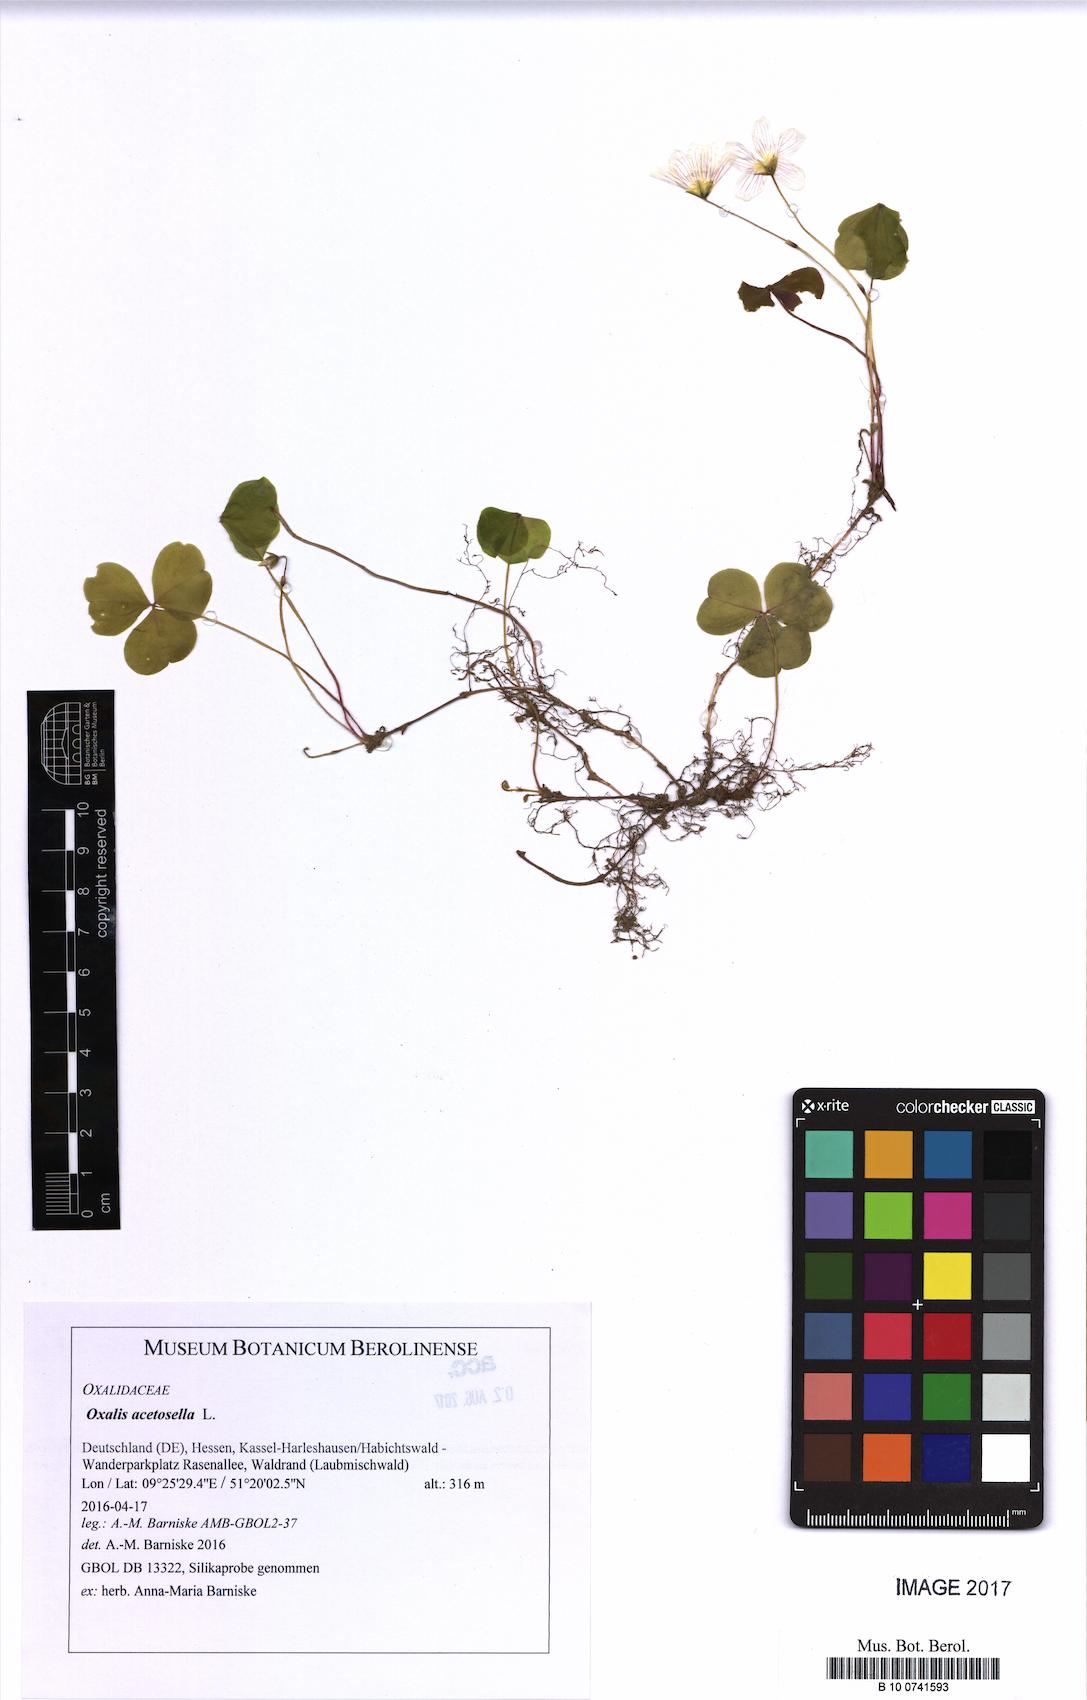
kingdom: Plantae
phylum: Tracheophyta
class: Magnoliopsida
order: Oxalidales
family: Oxalidaceae
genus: Oxalis
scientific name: Oxalis acetosella
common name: Wood-sorrel
